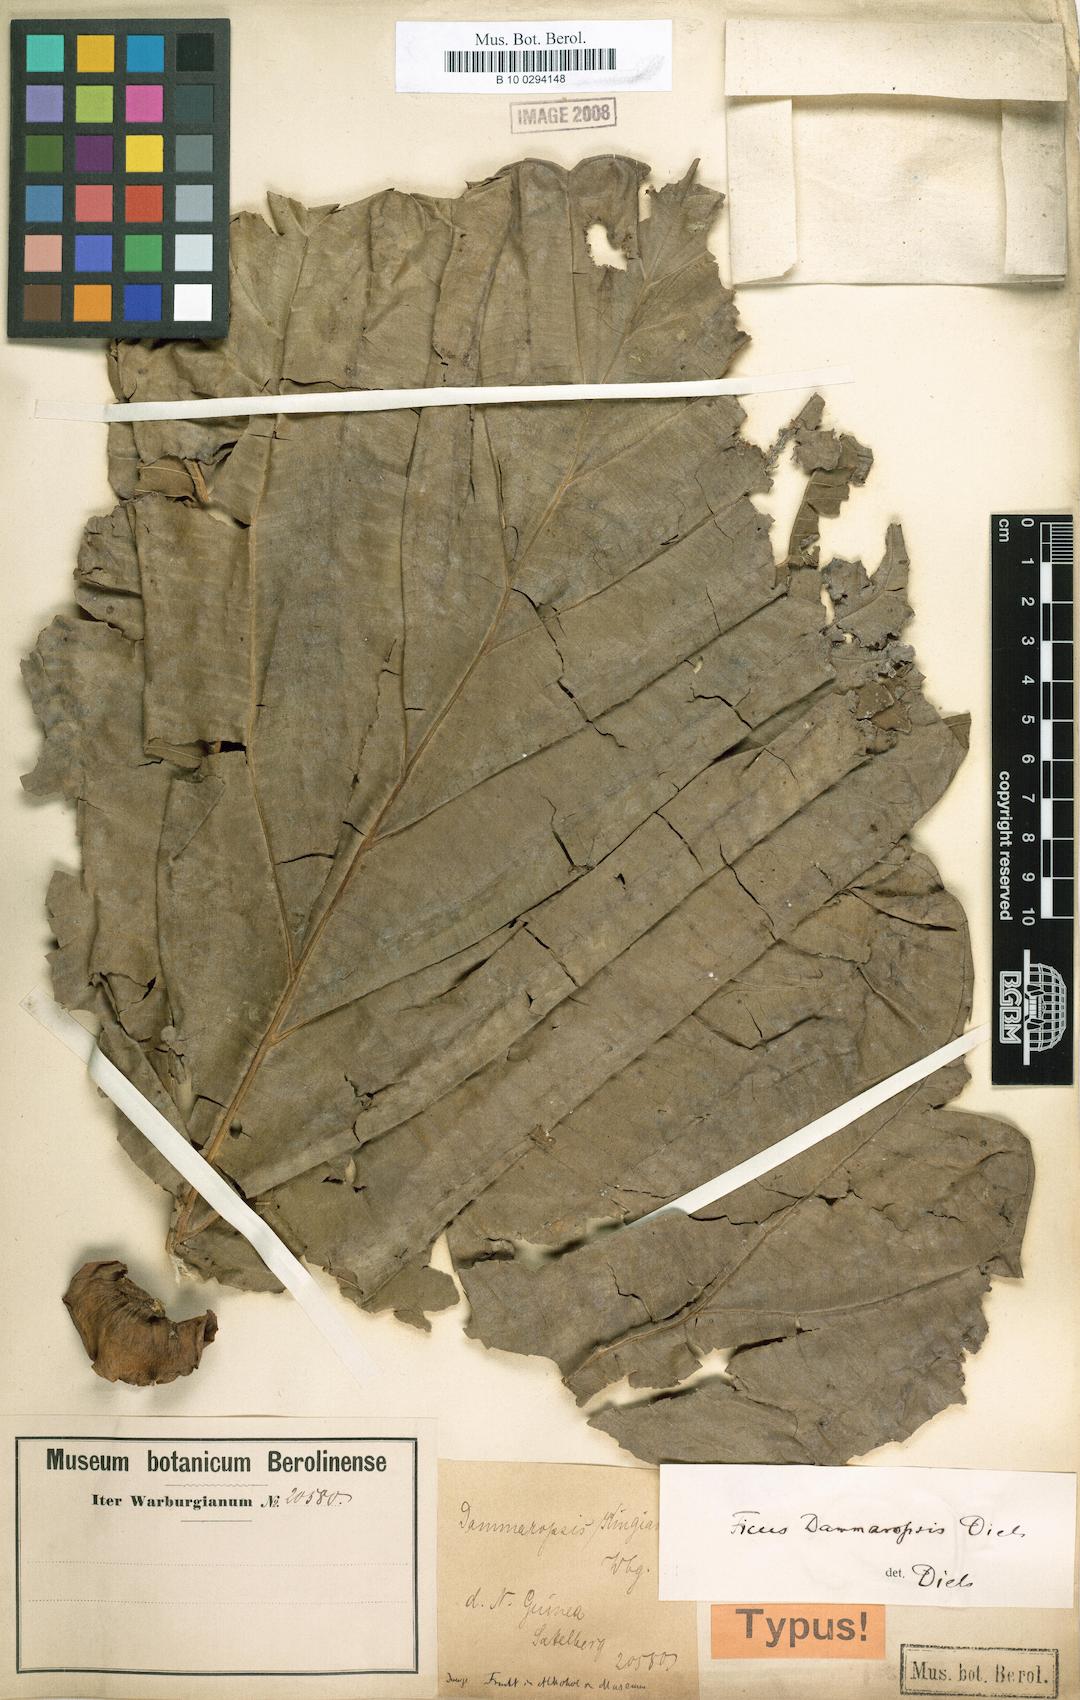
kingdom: Plantae
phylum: Tracheophyta
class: Magnoliopsida
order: Rosales
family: Moraceae
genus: Ficus
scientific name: Ficus dammaropsis
